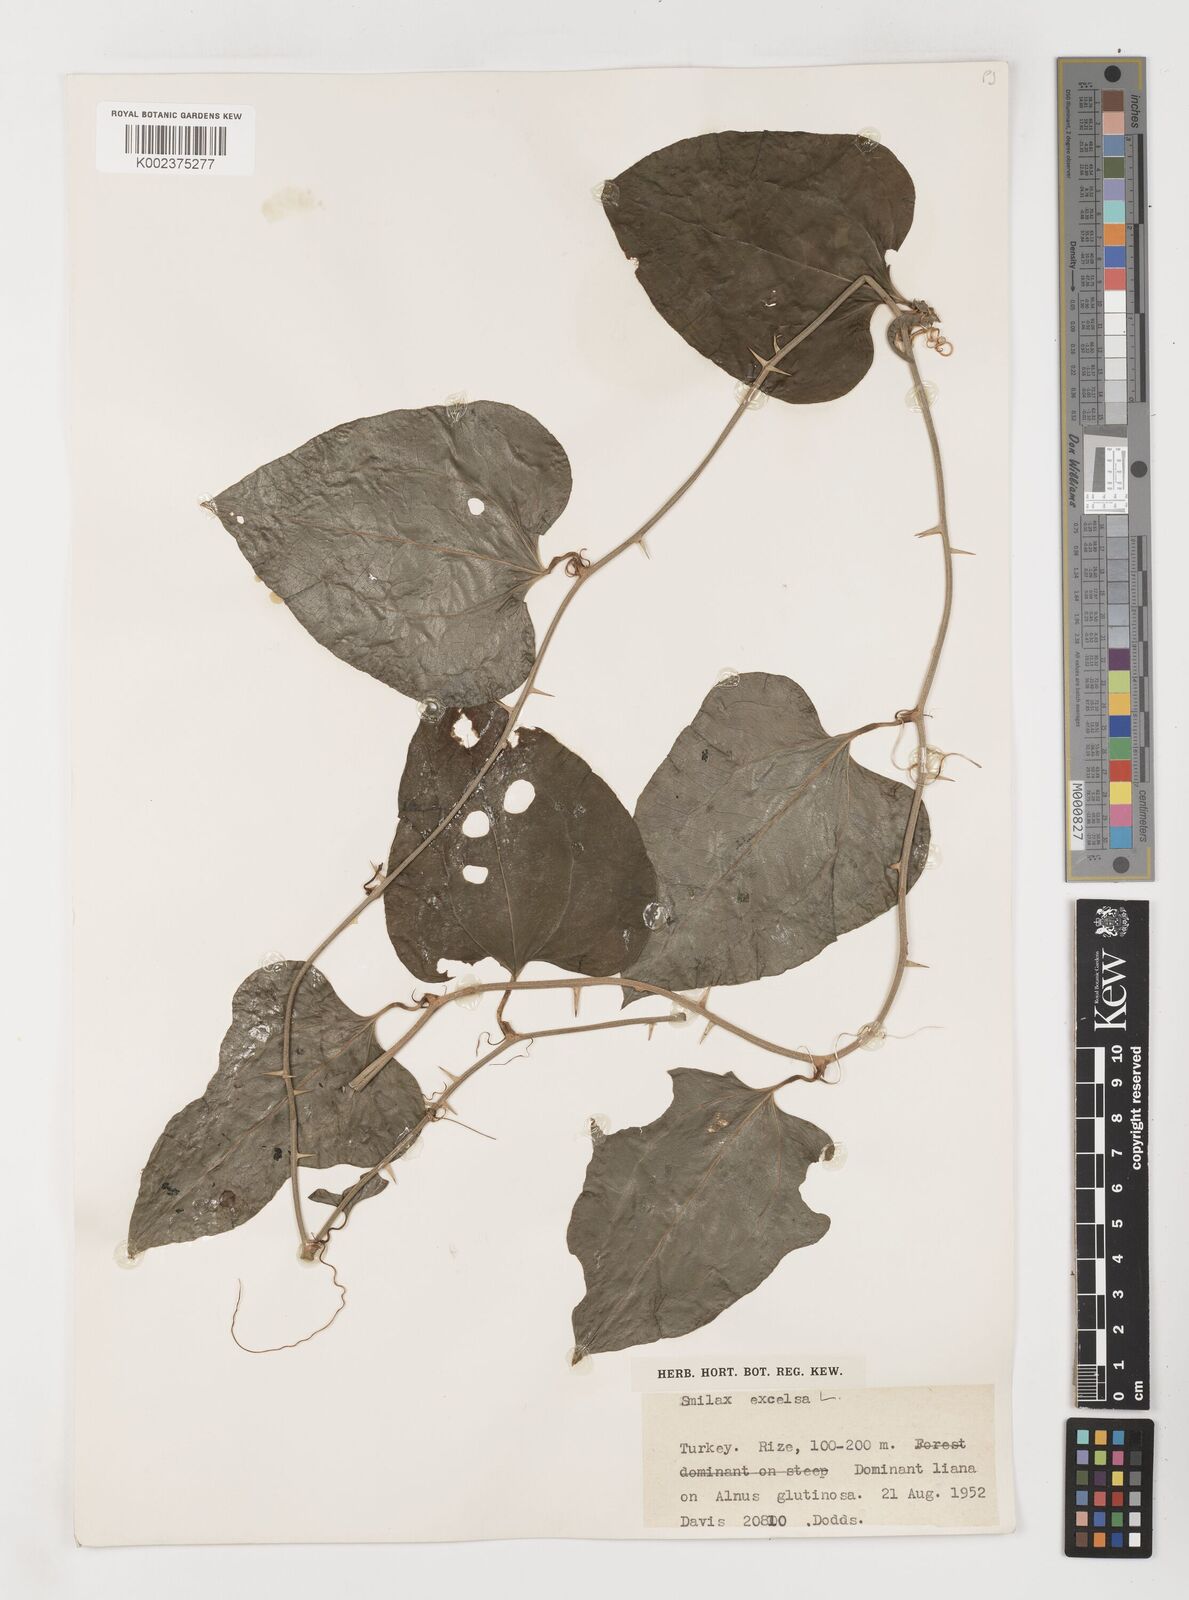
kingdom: Plantae
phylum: Tracheophyta
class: Liliopsida
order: Liliales
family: Smilacaceae
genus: Smilax
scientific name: Smilax excelsa
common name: Larger smilax
